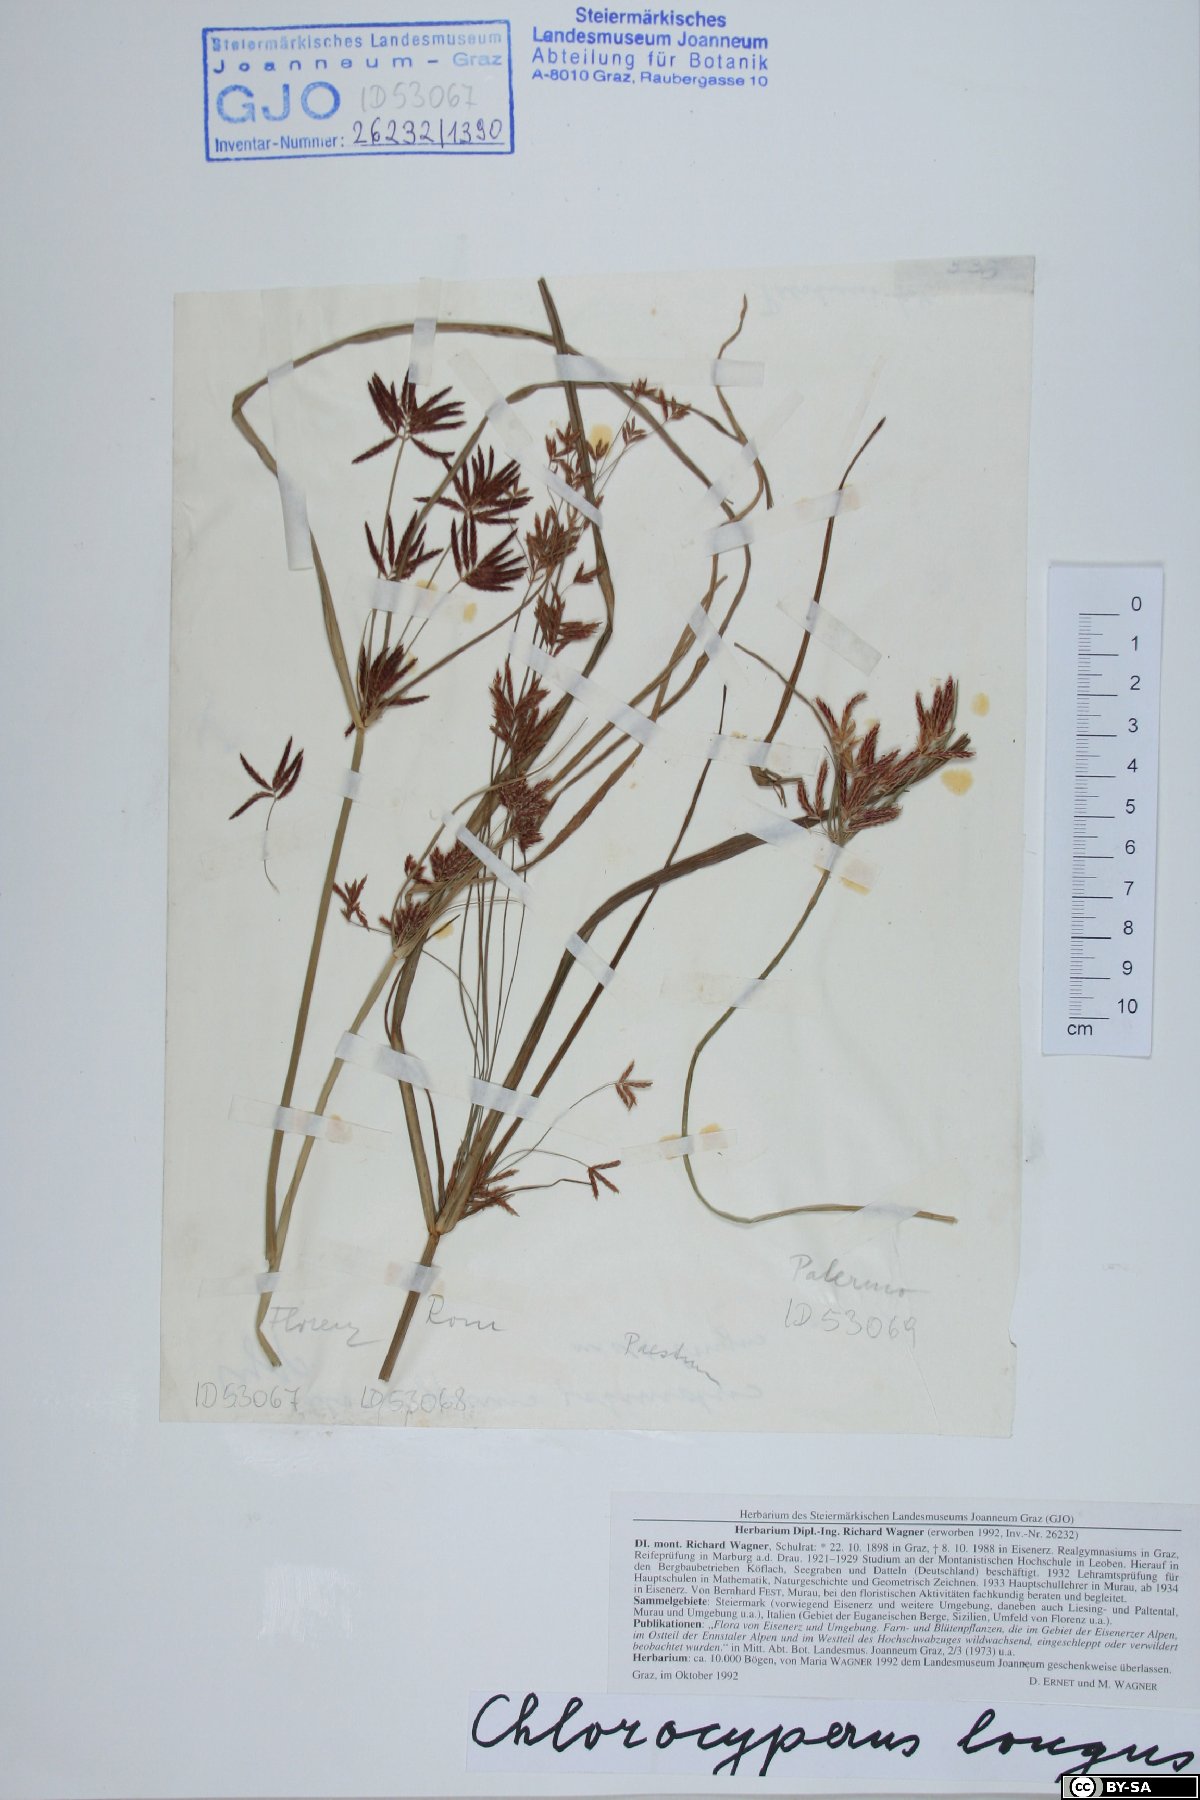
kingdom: Plantae
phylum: Tracheophyta
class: Liliopsida
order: Poales
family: Cyperaceae
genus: Cyperus
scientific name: Cyperus longus
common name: Galingale
